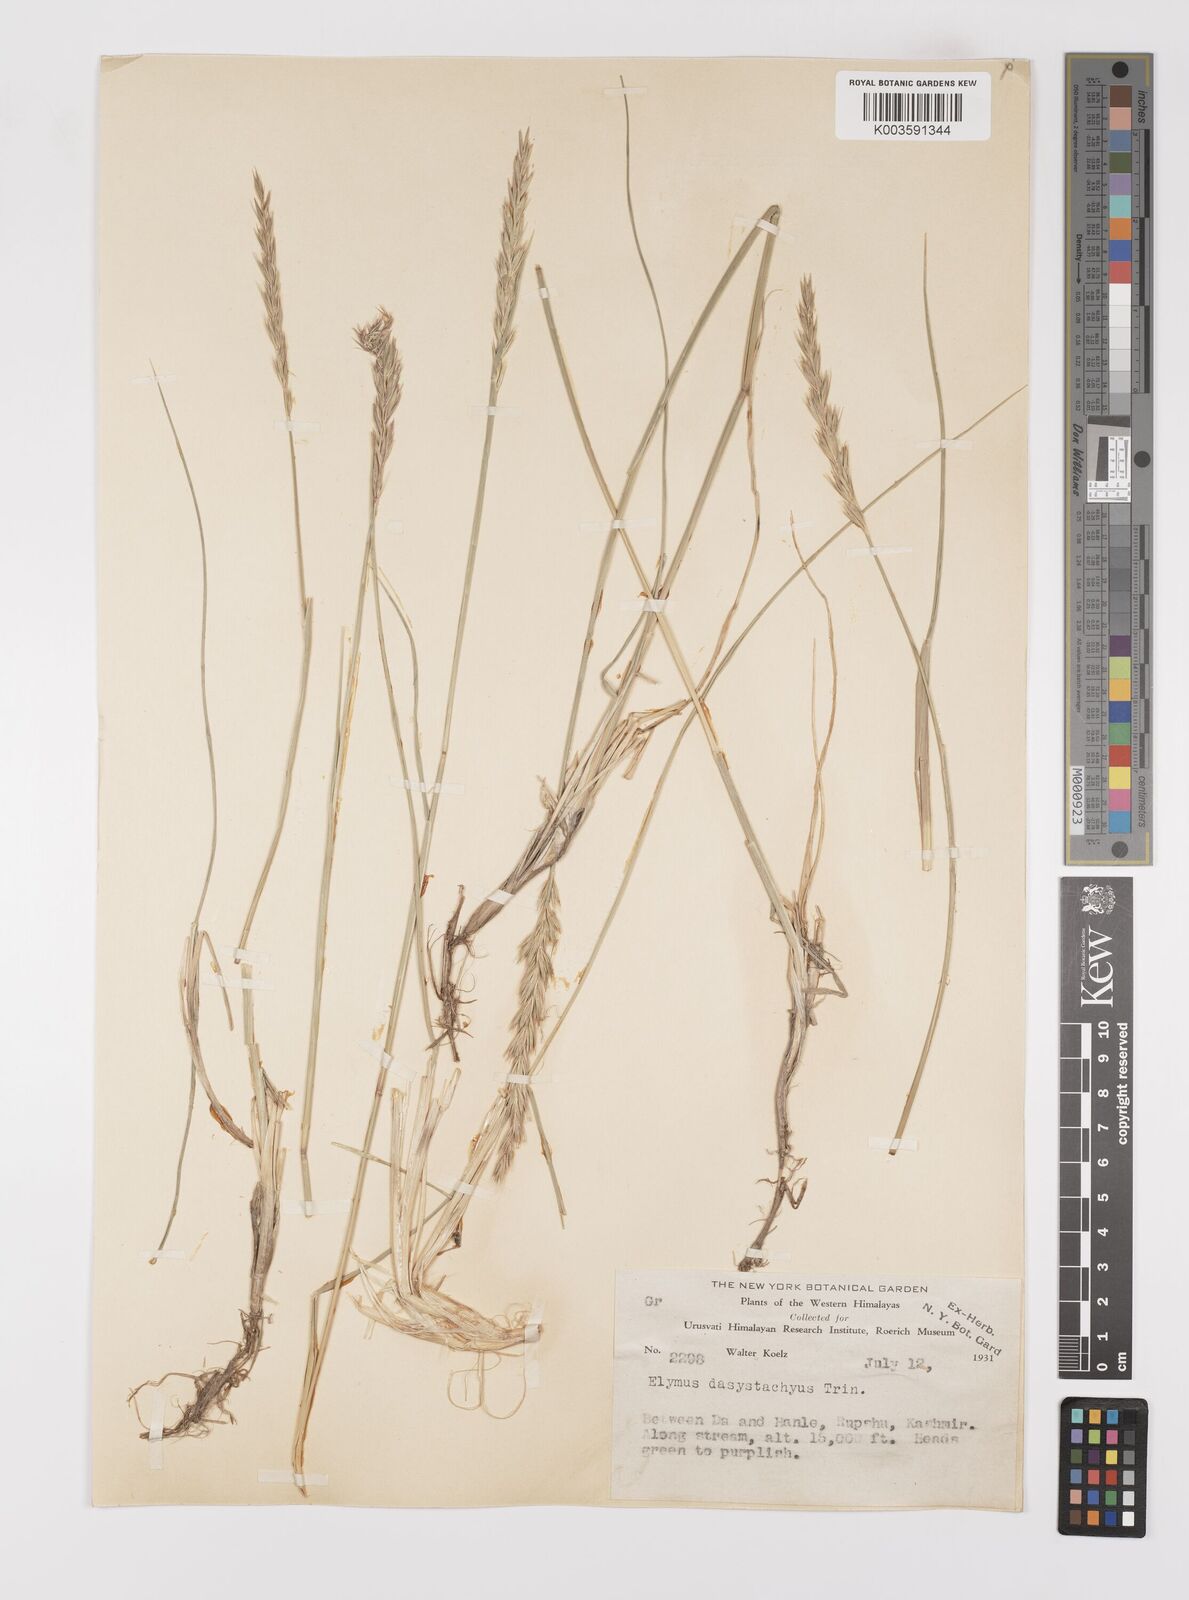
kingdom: Plantae
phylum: Tracheophyta
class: Liliopsida
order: Poales
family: Poaceae
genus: Leymus
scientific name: Leymus secalinus
